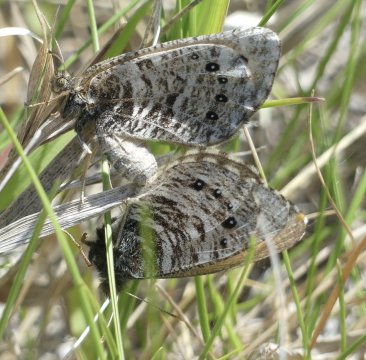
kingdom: Animalia
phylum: Arthropoda
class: Insecta
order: Lepidoptera
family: Nymphalidae
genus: Oeneis
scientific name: Oeneis uhleri
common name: Uhler's Arctic
